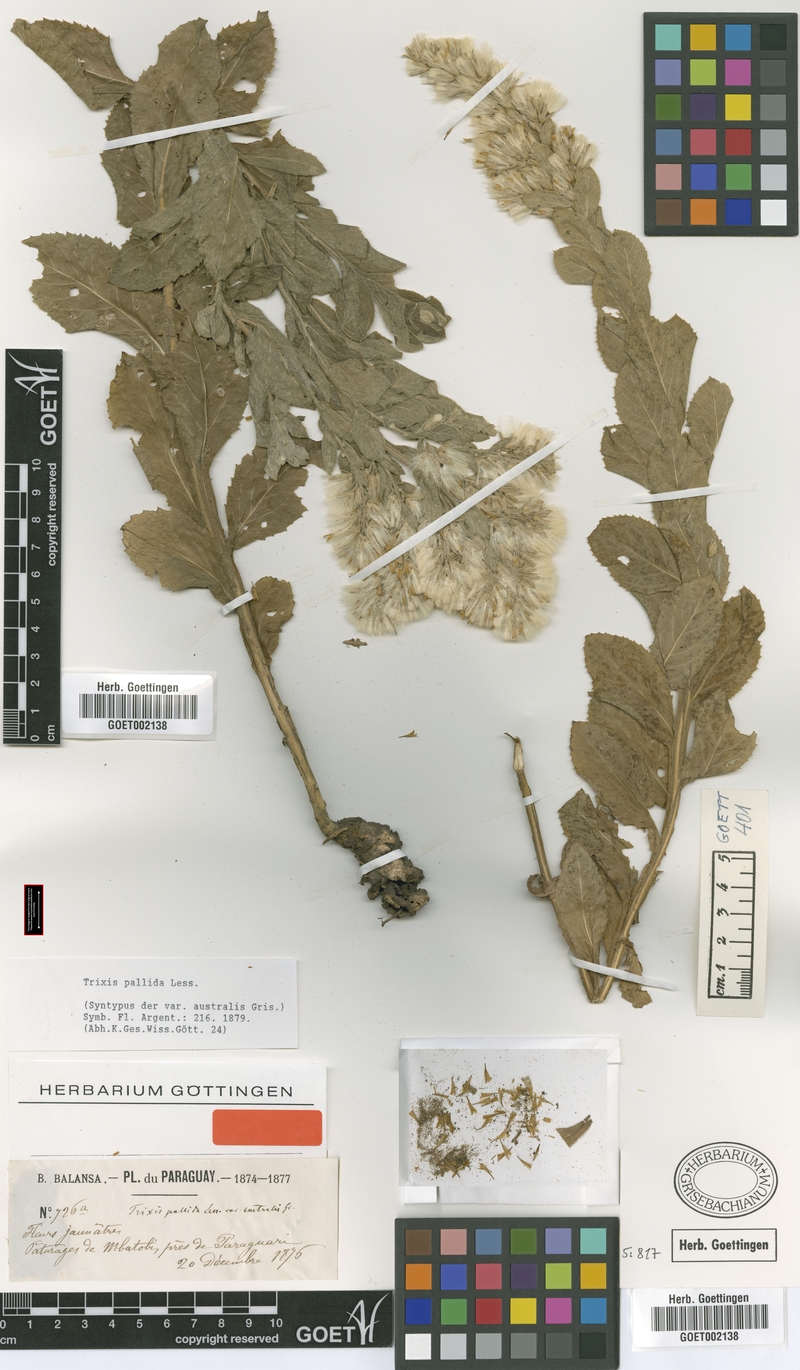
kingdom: Plantae
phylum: Tracheophyta
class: Magnoliopsida
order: Asterales
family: Asteraceae
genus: Trixis
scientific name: Trixis pallida
